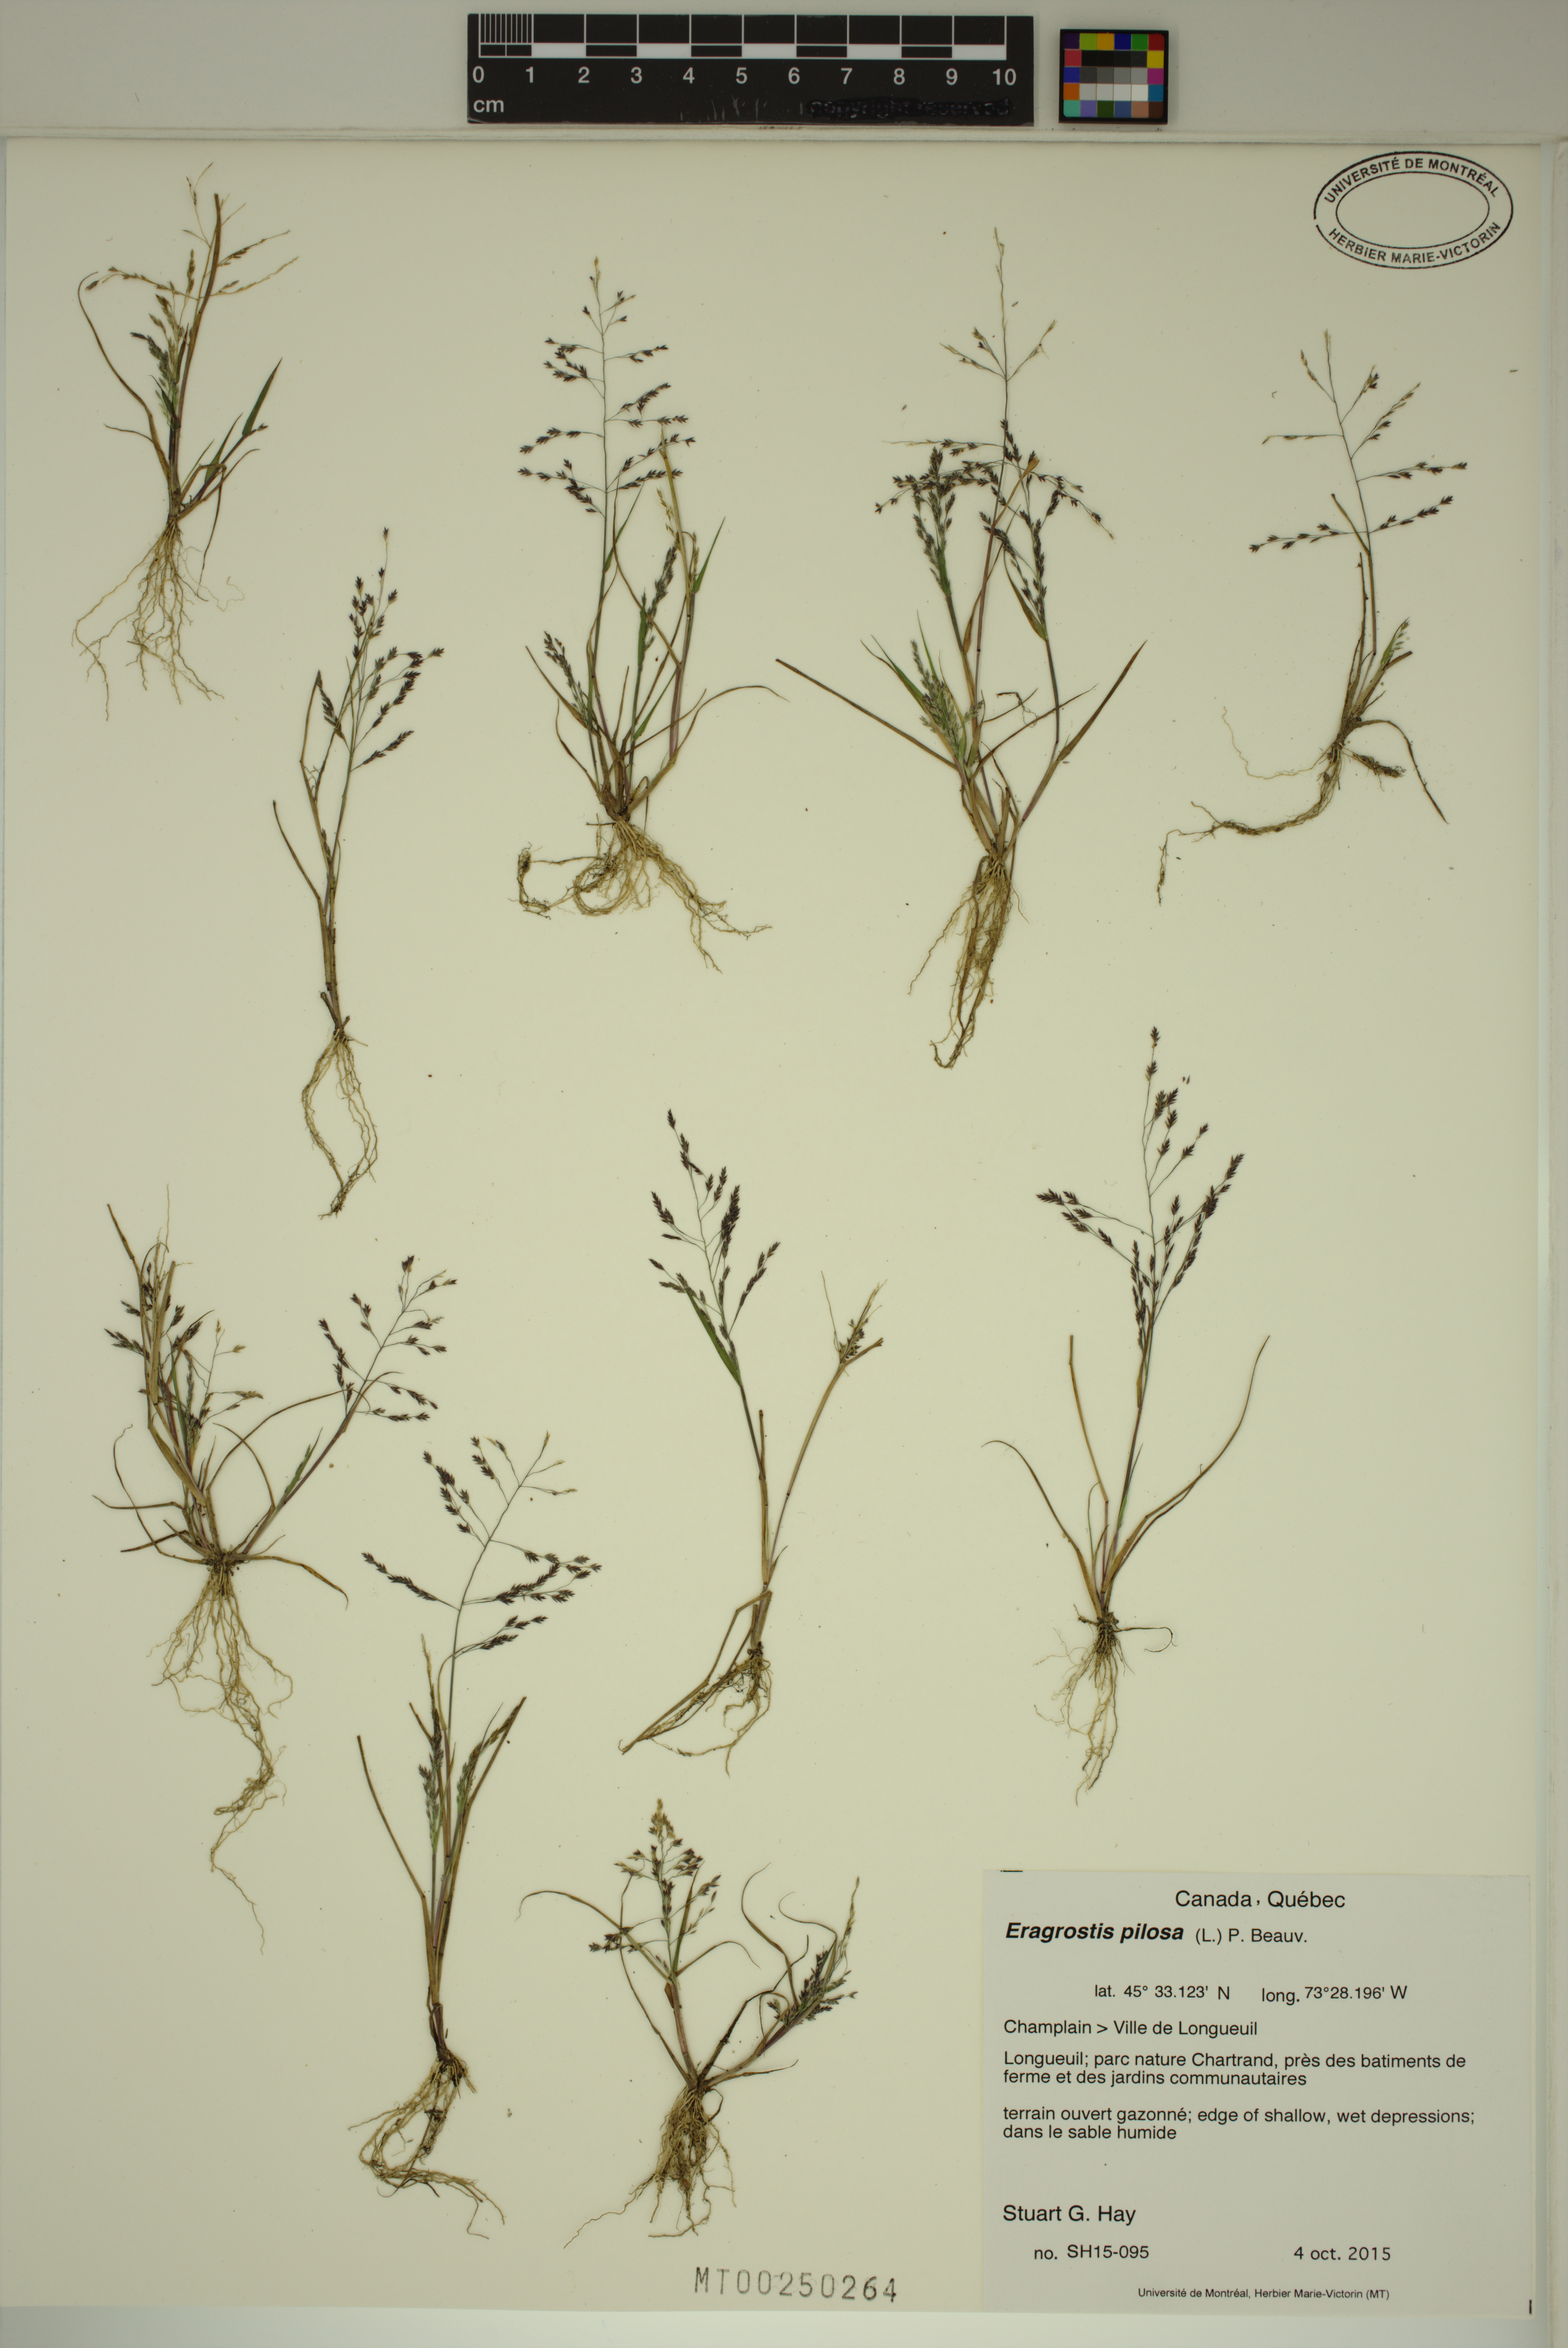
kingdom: Plantae
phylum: Tracheophyta
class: Liliopsida
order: Poales
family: Poaceae
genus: Eragrostis
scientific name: Eragrostis pilosa
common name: Indian lovegrass
